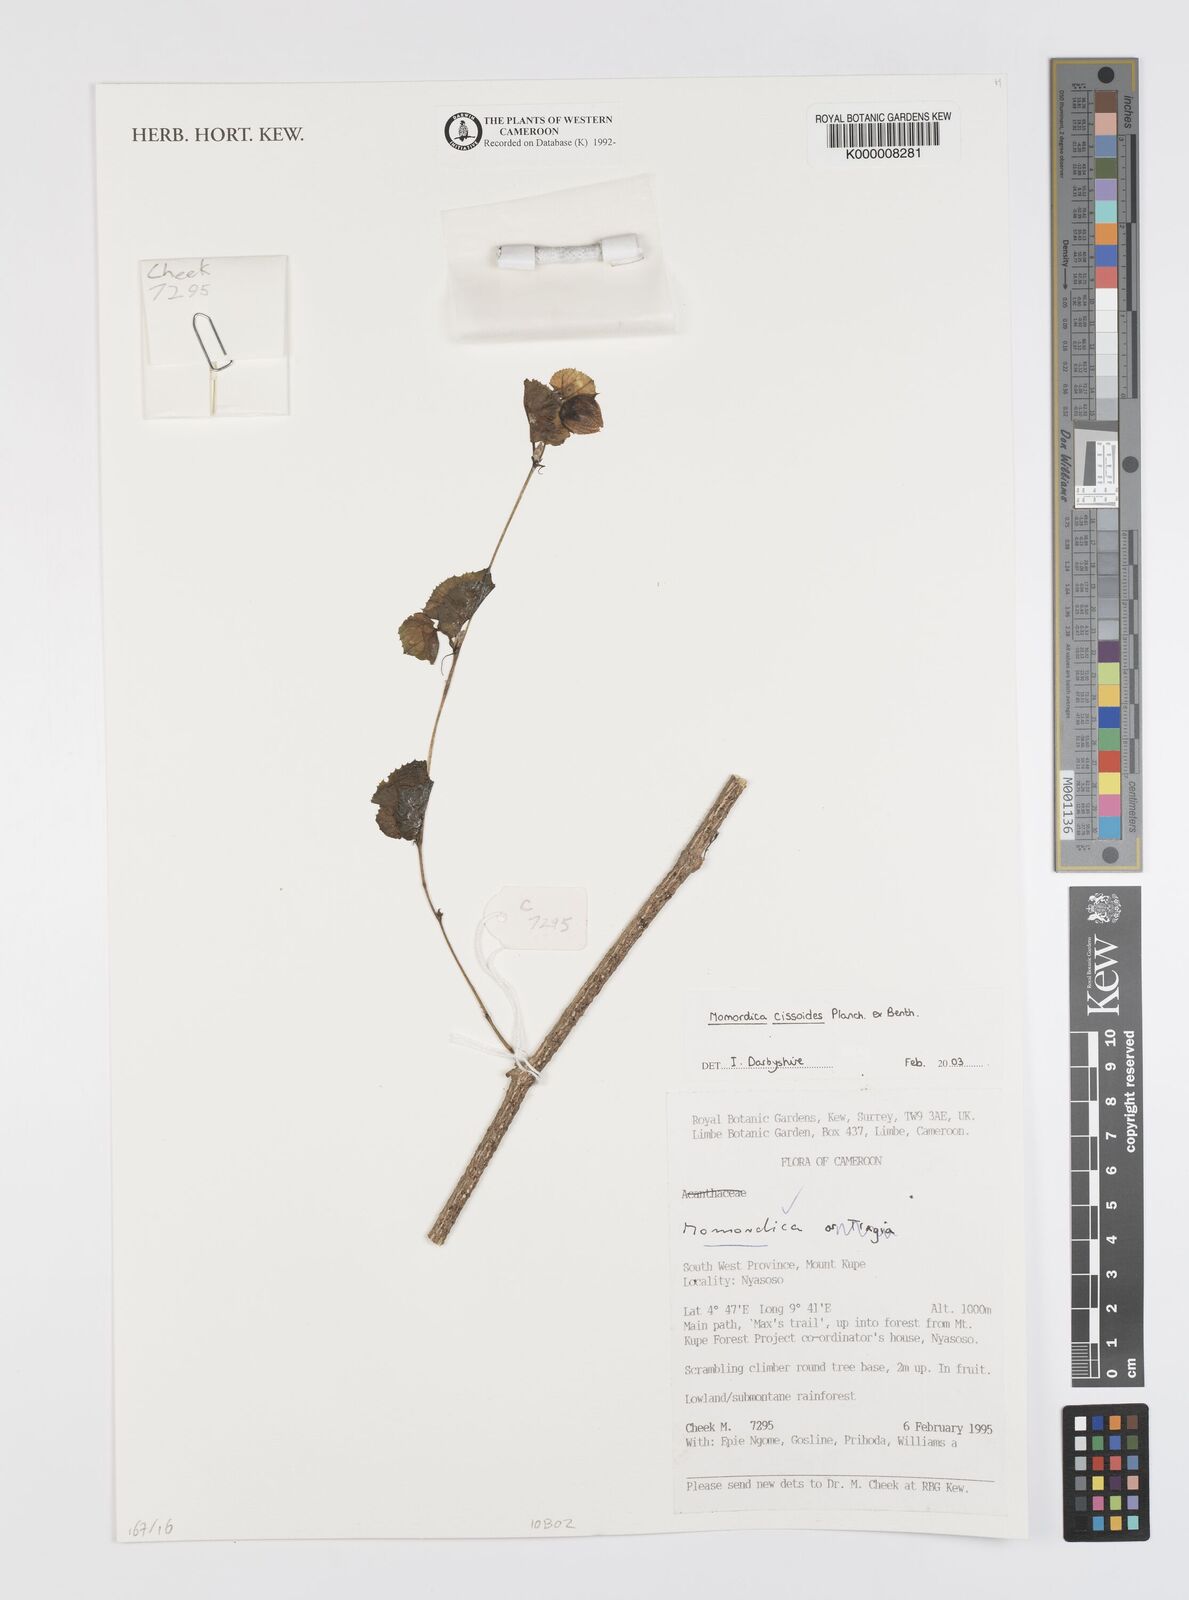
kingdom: Plantae
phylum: Tracheophyta
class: Magnoliopsida
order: Cucurbitales
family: Cucurbitaceae
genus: Momordica
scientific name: Momordica cissoides
